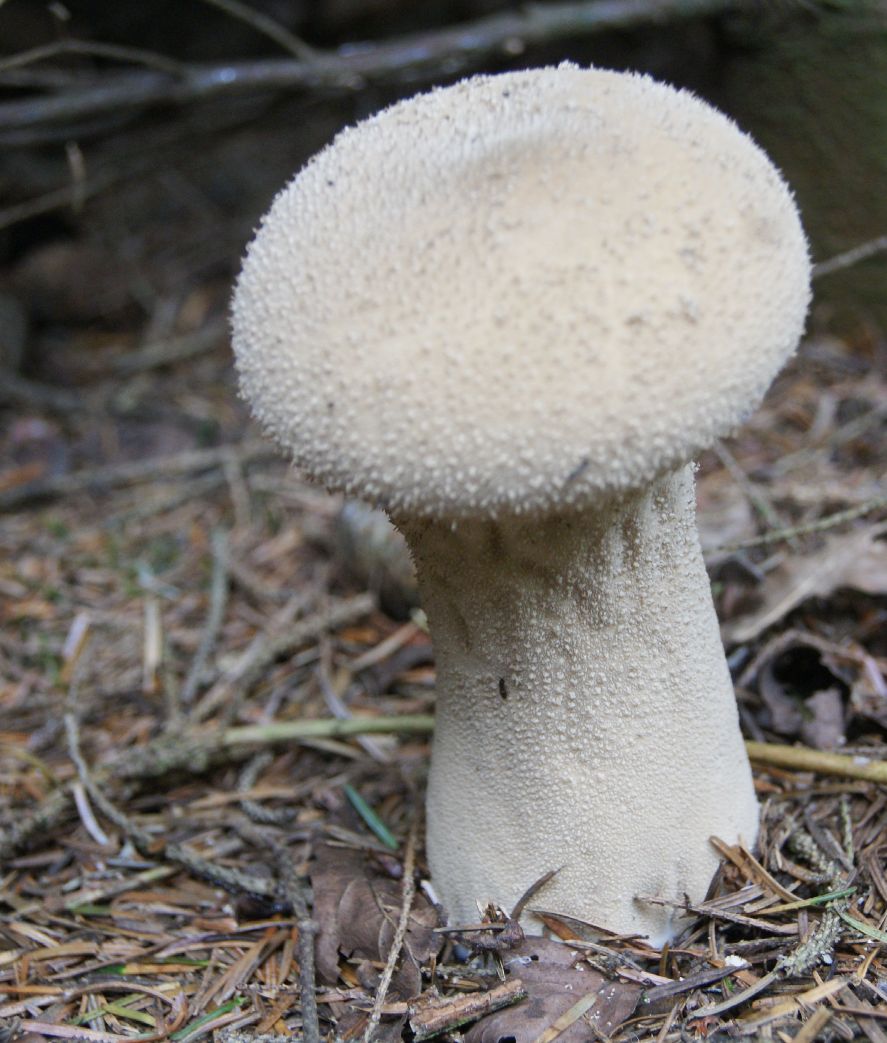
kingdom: Fungi
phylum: Basidiomycota
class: Agaricomycetes
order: Agaricales
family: Lycoperdaceae
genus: Lycoperdon
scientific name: Lycoperdon excipuliforme
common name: højstokket støvbold
